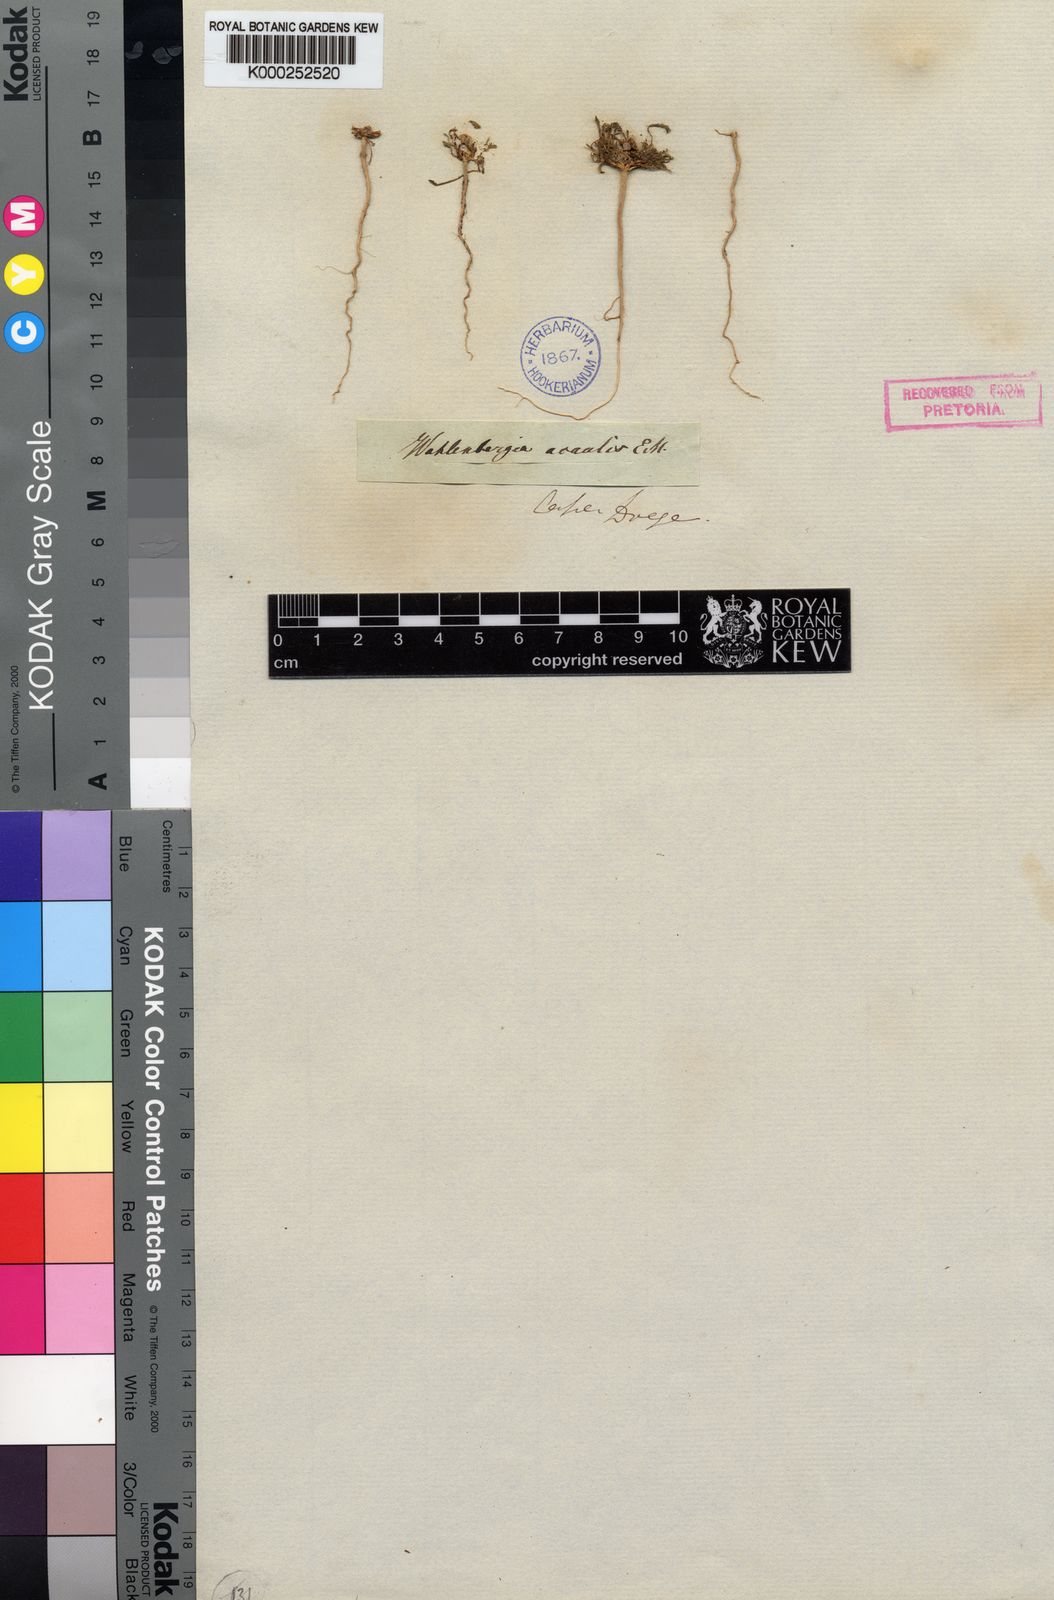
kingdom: Plantae
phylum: Tracheophyta
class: Magnoliopsida
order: Asterales
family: Campanulaceae
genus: Wahlenbergia
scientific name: Wahlenbergia
